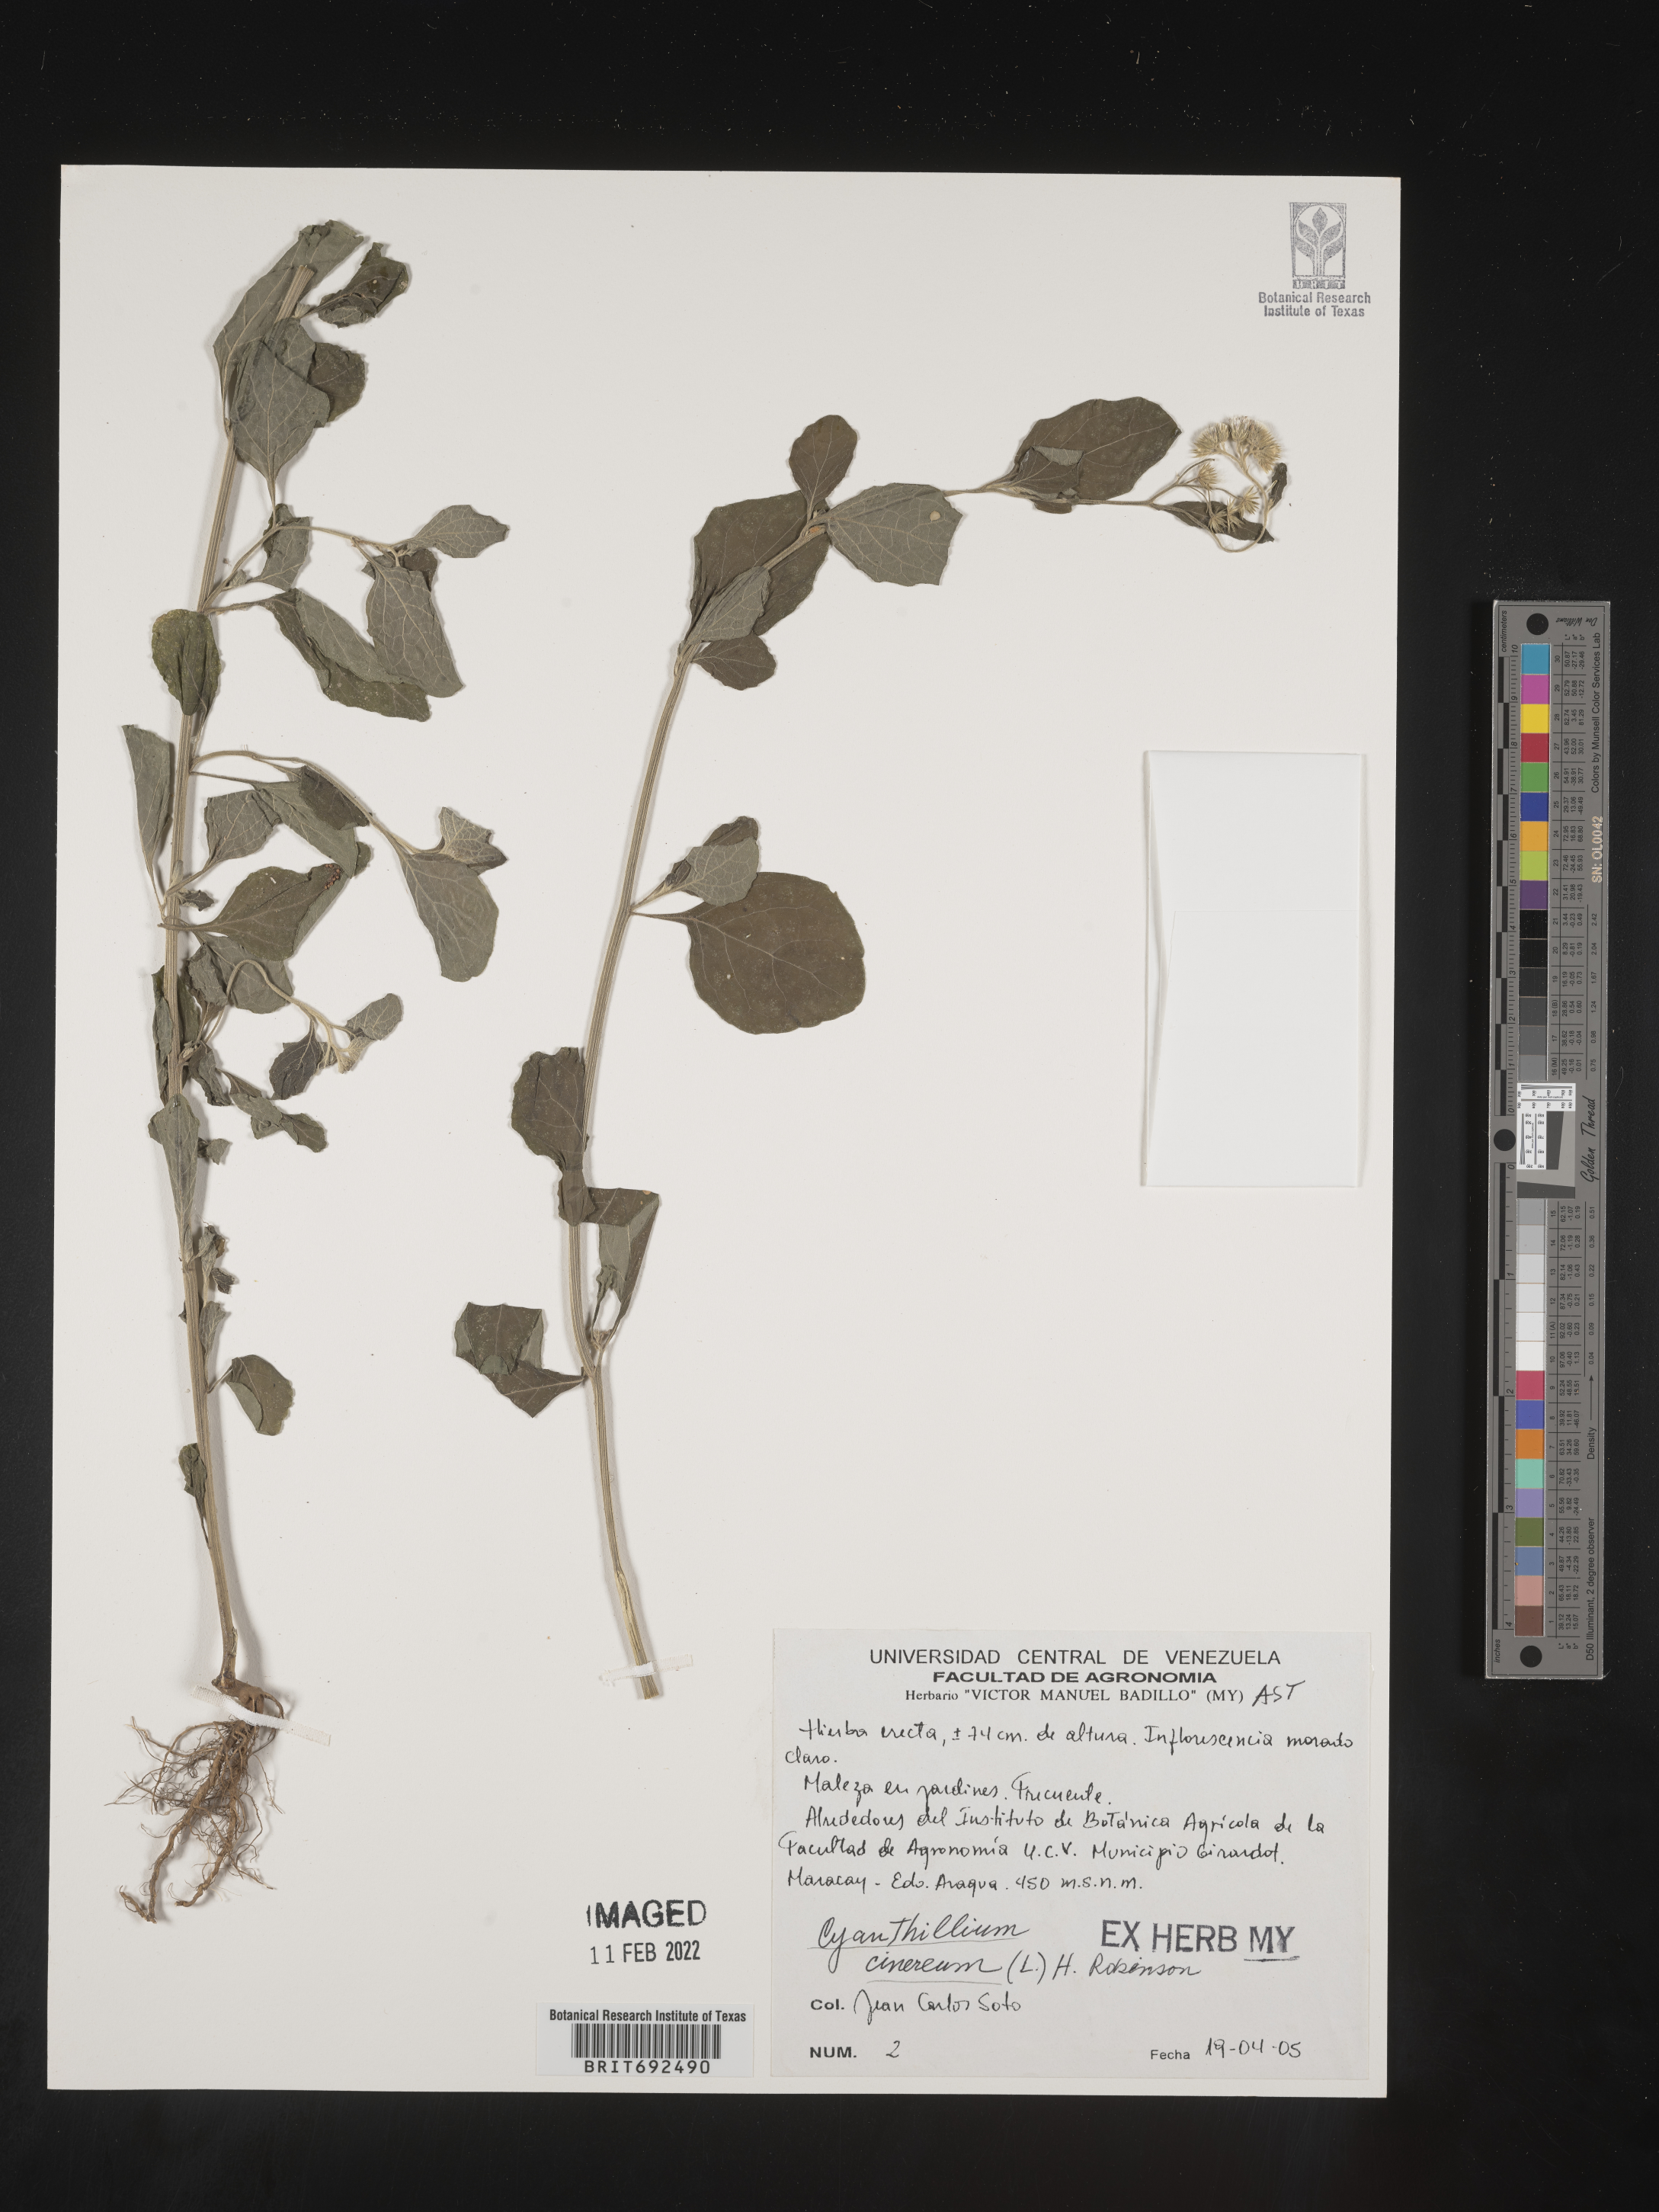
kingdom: Plantae
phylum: Tracheophyta
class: Magnoliopsida
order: Asterales
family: Asteraceae
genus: Cyanthillium
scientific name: Cyanthillium cinereum
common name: Little ironweed
